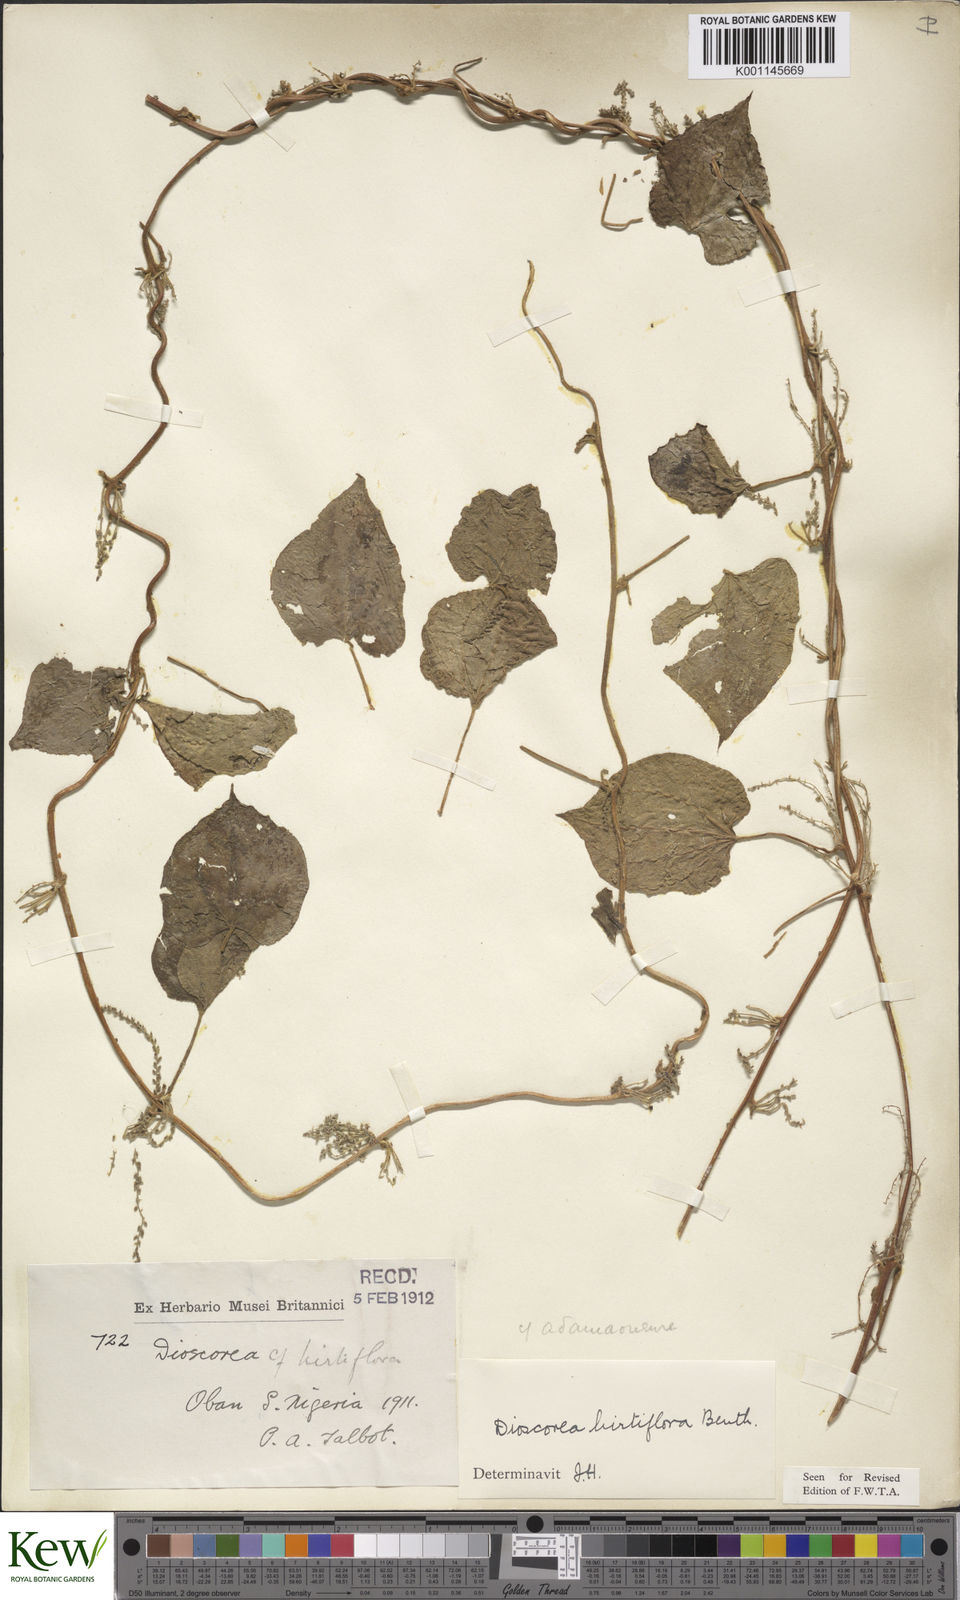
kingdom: Plantae
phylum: Tracheophyta
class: Liliopsida
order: Dioscoreales
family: Dioscoreaceae
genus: Dioscorea
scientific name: Dioscorea hirtiflora
